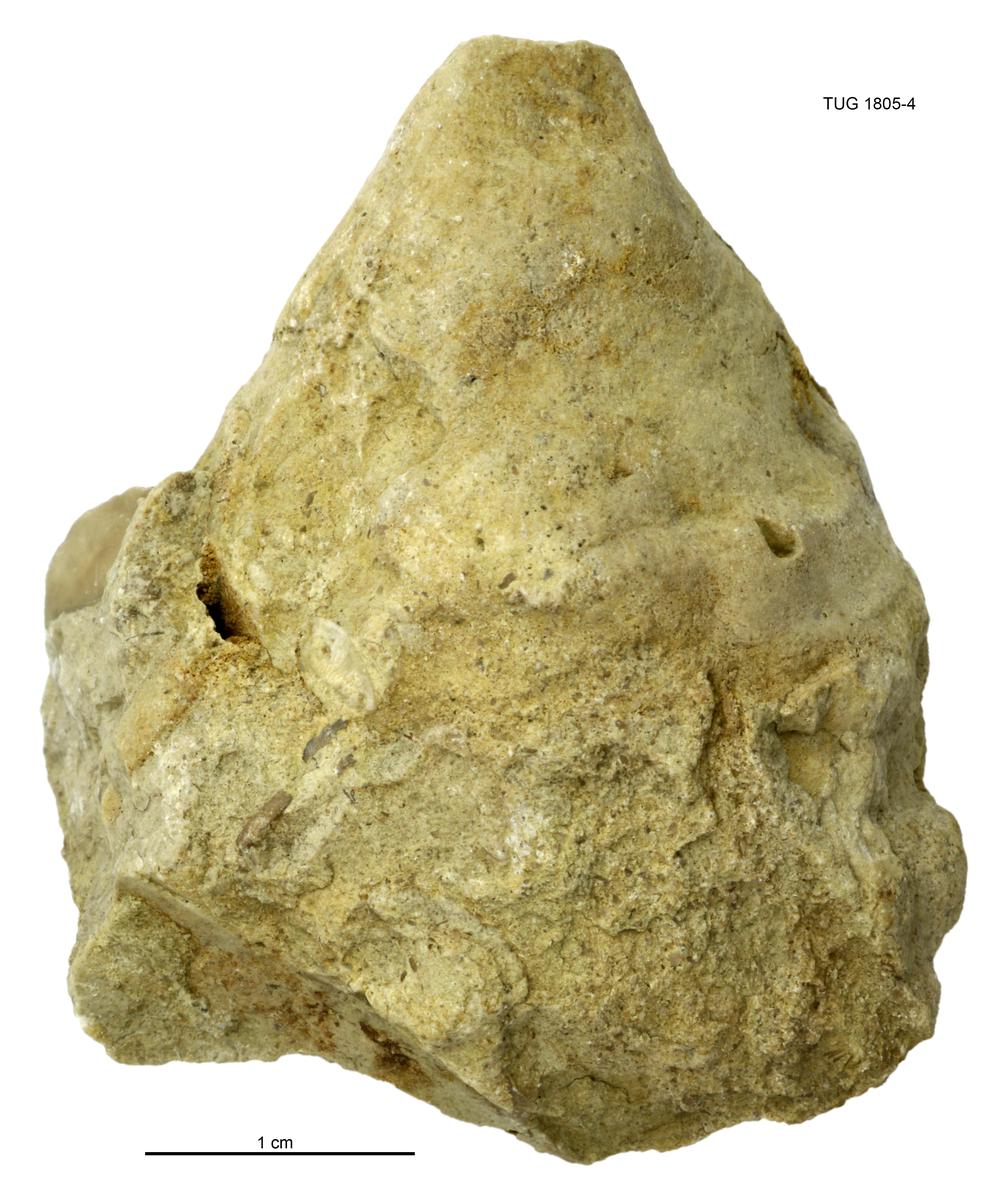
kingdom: Animalia
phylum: Mollusca
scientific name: Mollusca
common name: Mollusca
